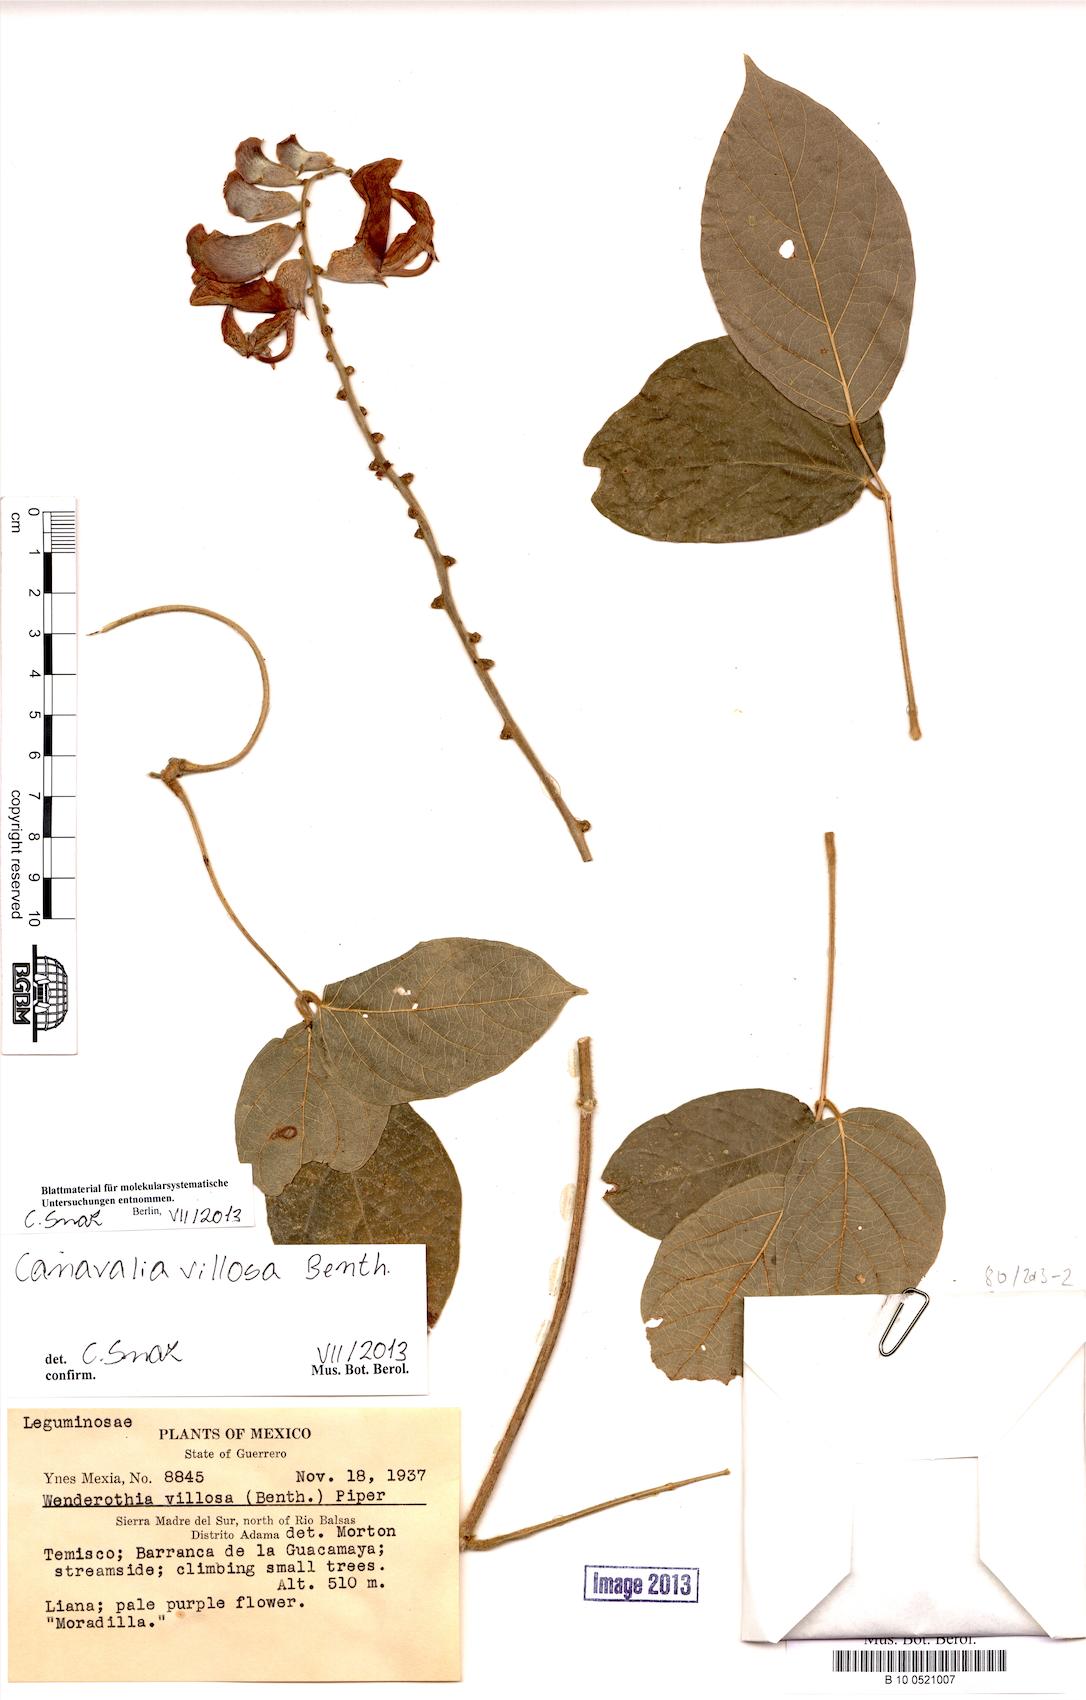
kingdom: Plantae
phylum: Tracheophyta
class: Magnoliopsida
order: Fabales
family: Fabaceae
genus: Canavalia
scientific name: Canavalia villosa
